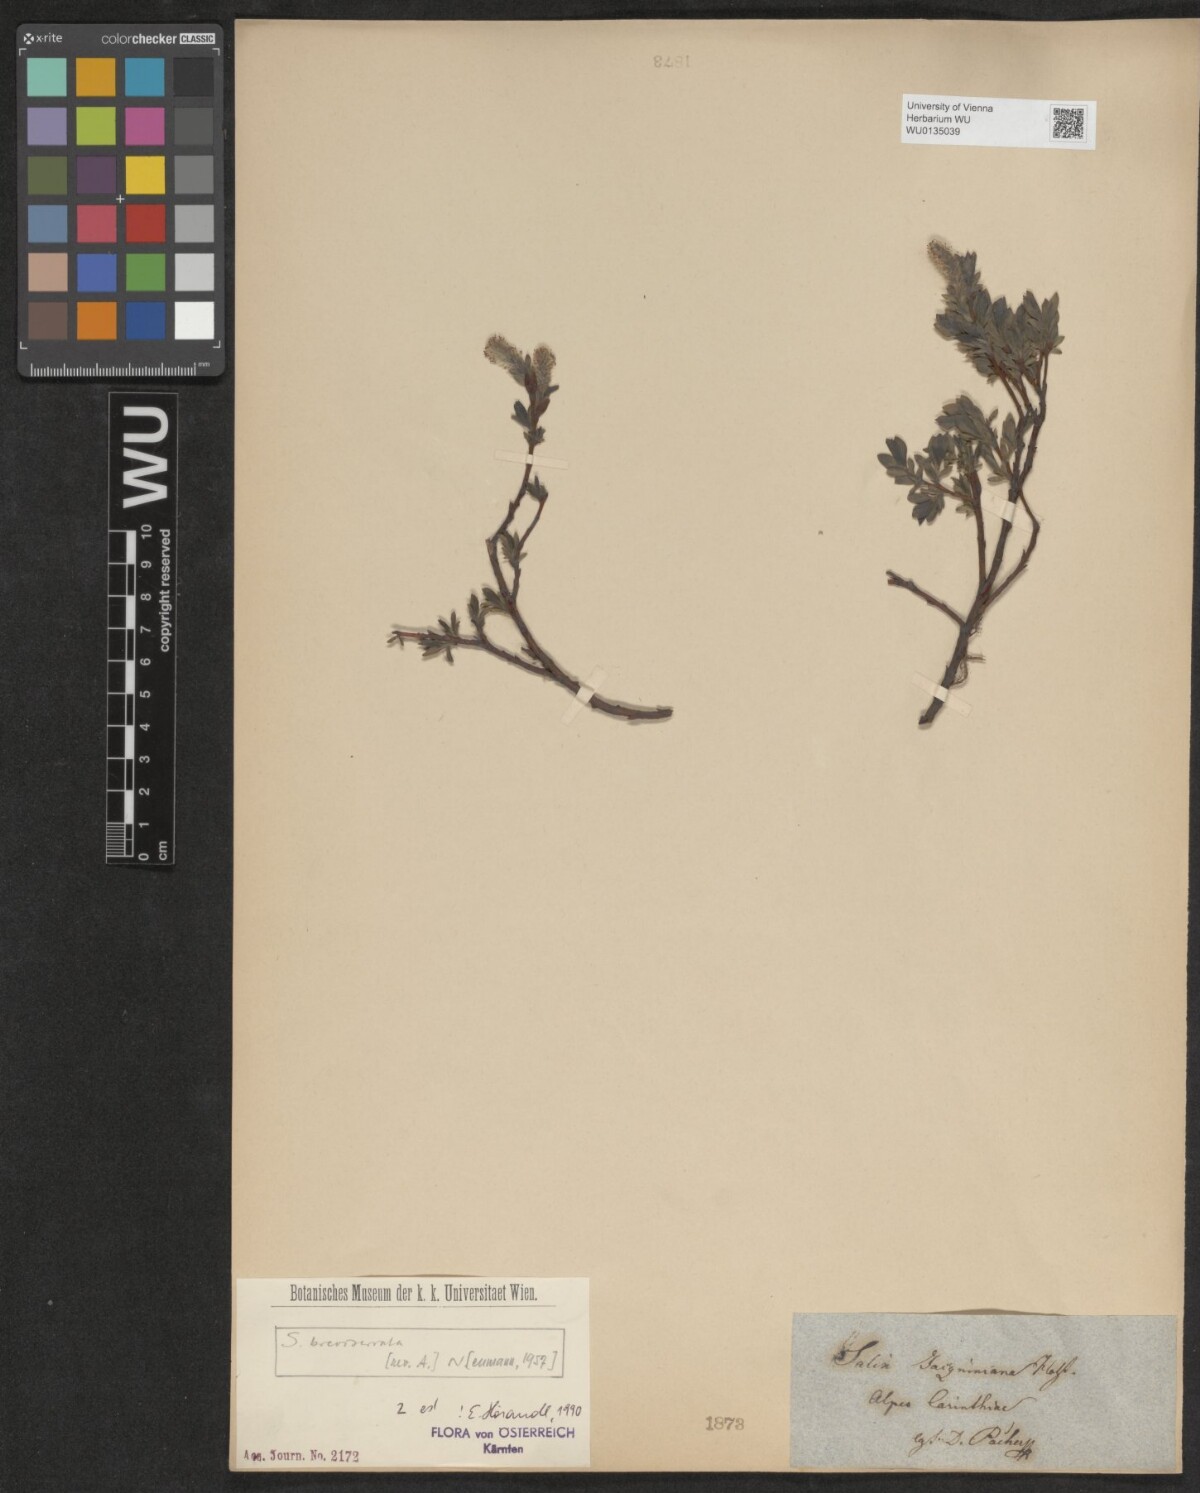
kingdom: Plantae
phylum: Tracheophyta
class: Magnoliopsida
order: Malpighiales
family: Salicaceae
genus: Salix
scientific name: Salix breviserrata
